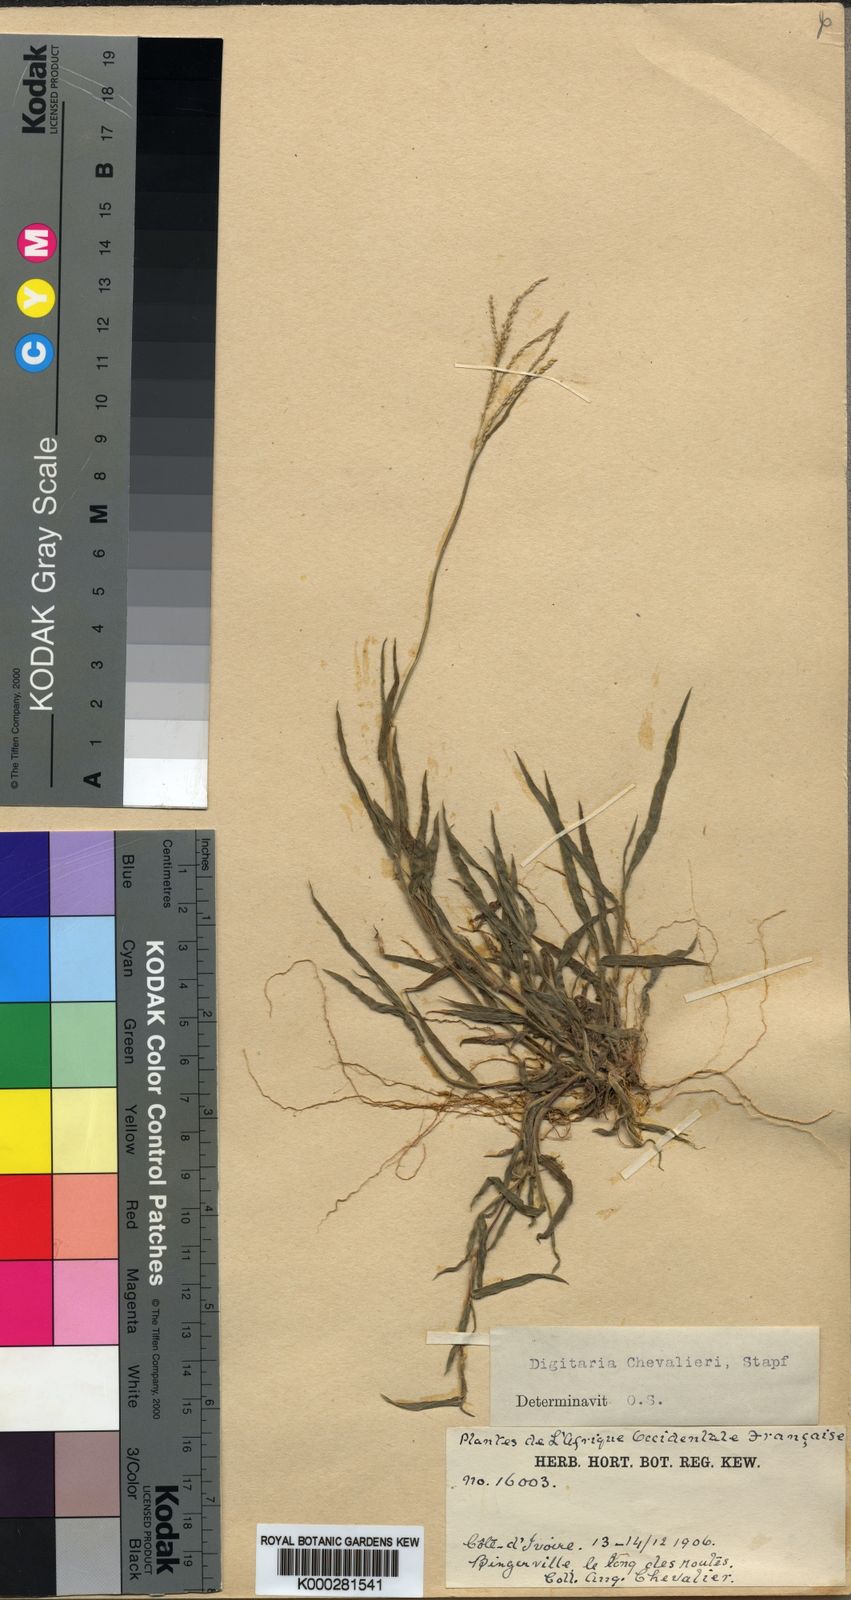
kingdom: Plantae
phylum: Tracheophyta
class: Liliopsida
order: Poales
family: Poaceae
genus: Digitaria
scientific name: Digitaria leptorhachis
